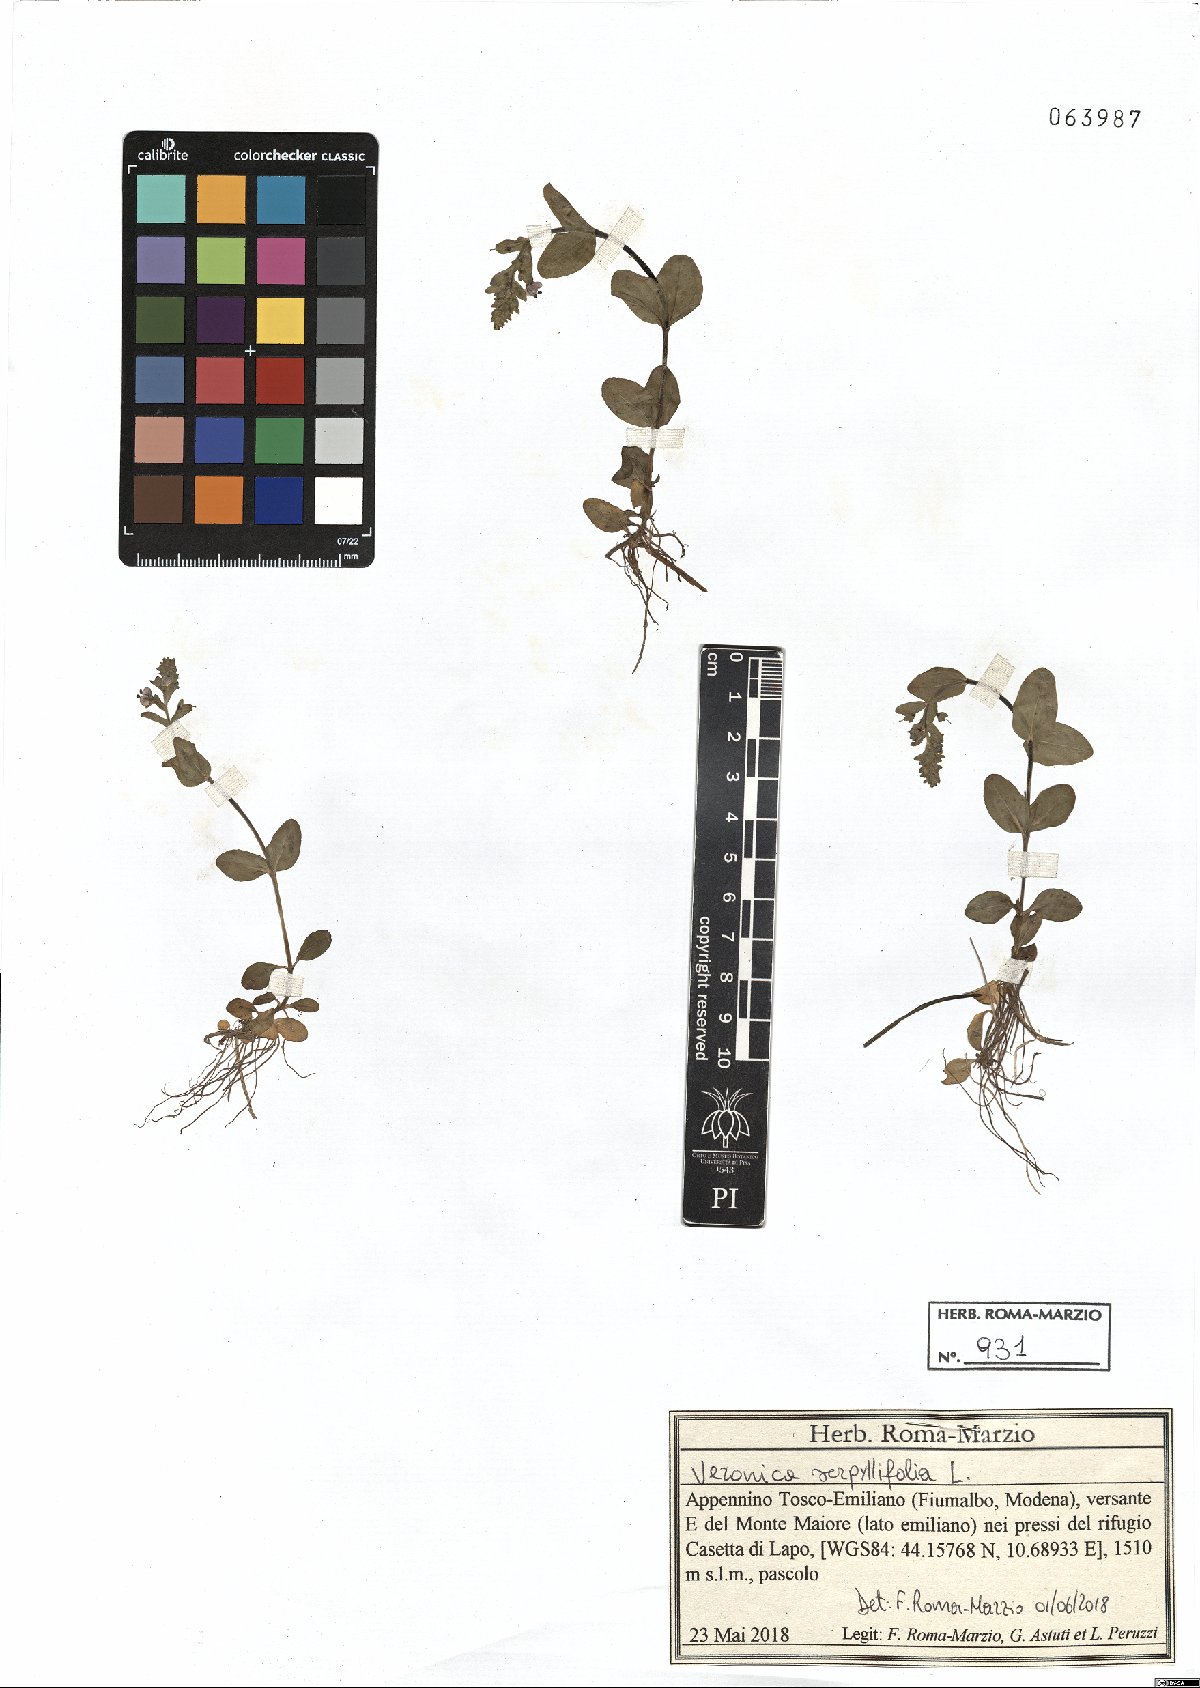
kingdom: Plantae
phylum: Tracheophyta
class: Magnoliopsida
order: Lamiales
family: Plantaginaceae
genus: Veronica
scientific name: Veronica serpyllifolia
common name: Thyme-leaved speedwell
